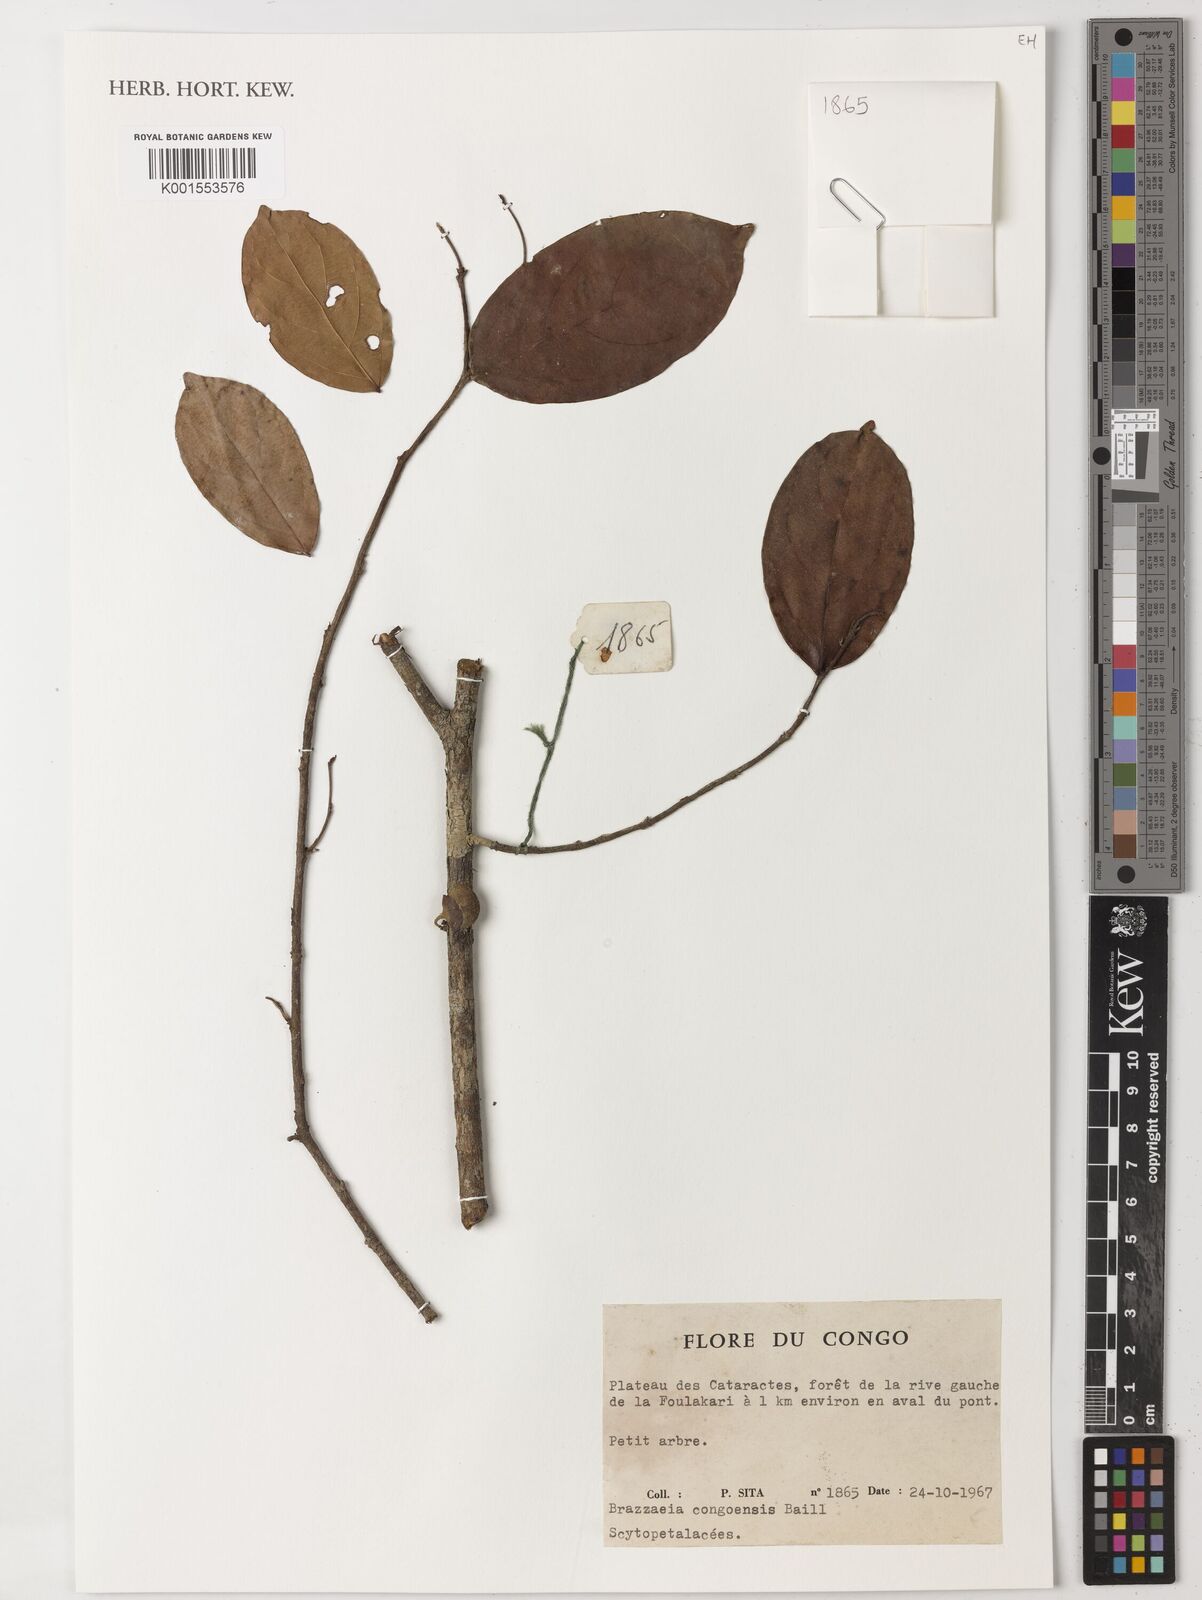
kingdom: Plantae
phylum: Tracheophyta
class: Magnoliopsida
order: Ericales
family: Lecythidaceae
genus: Brazzeia
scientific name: Brazzeia congoensis
